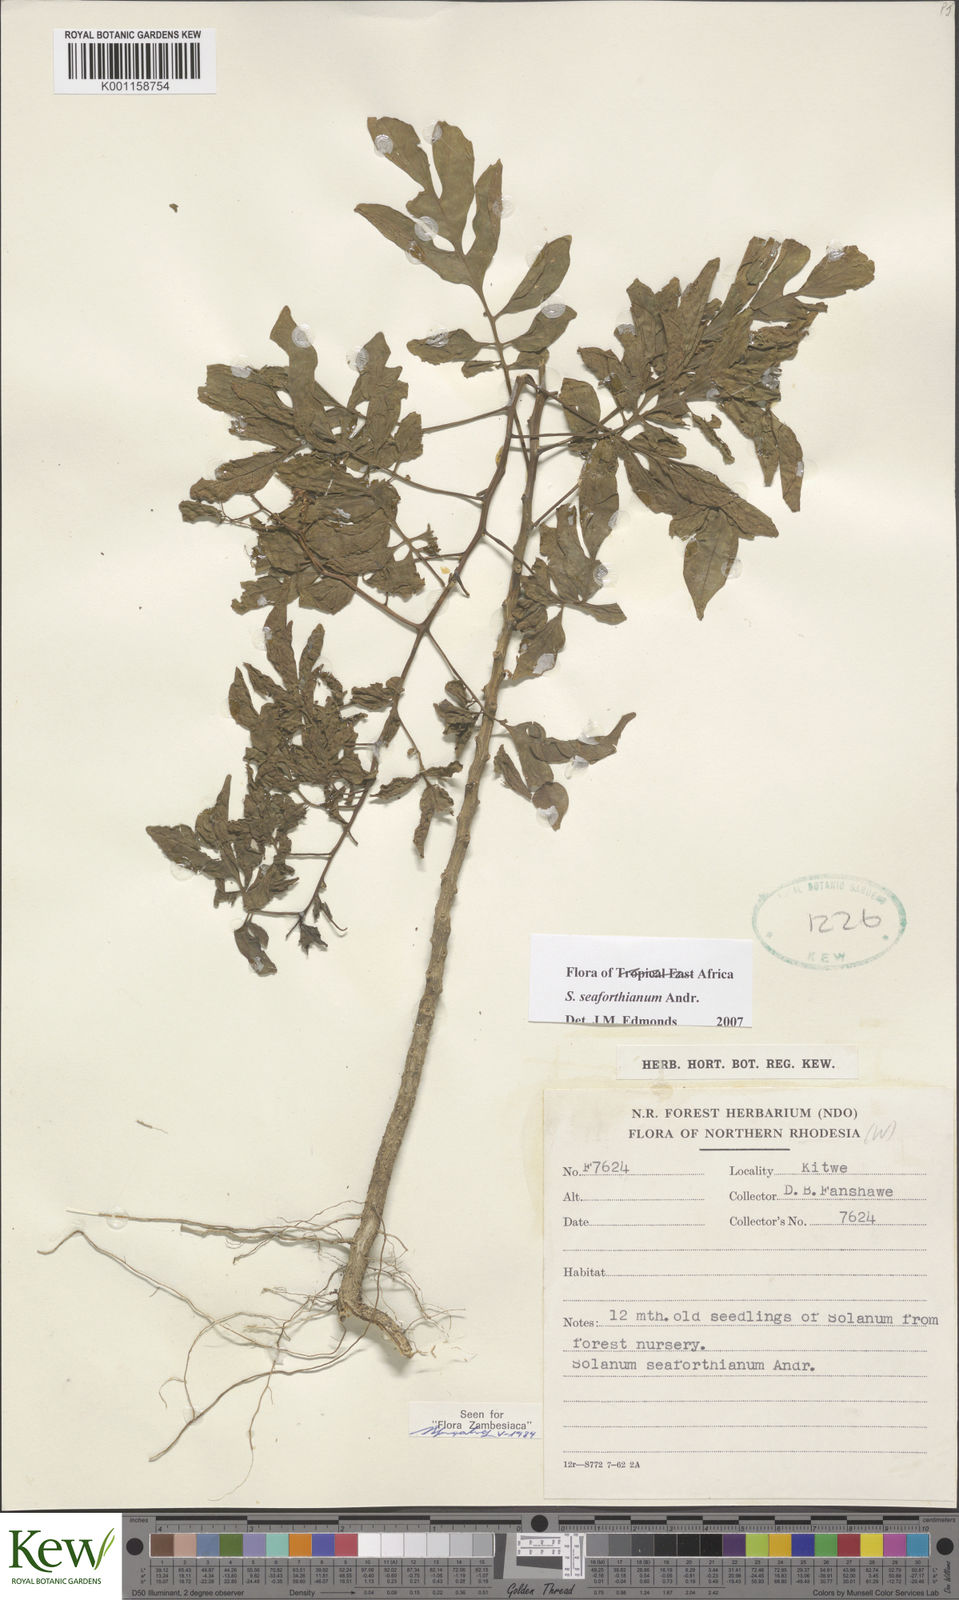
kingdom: Plantae
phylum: Tracheophyta
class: Magnoliopsida
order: Solanales
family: Solanaceae
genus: Solanum
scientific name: Solanum seaforthianum
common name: Brazilian nightshade
